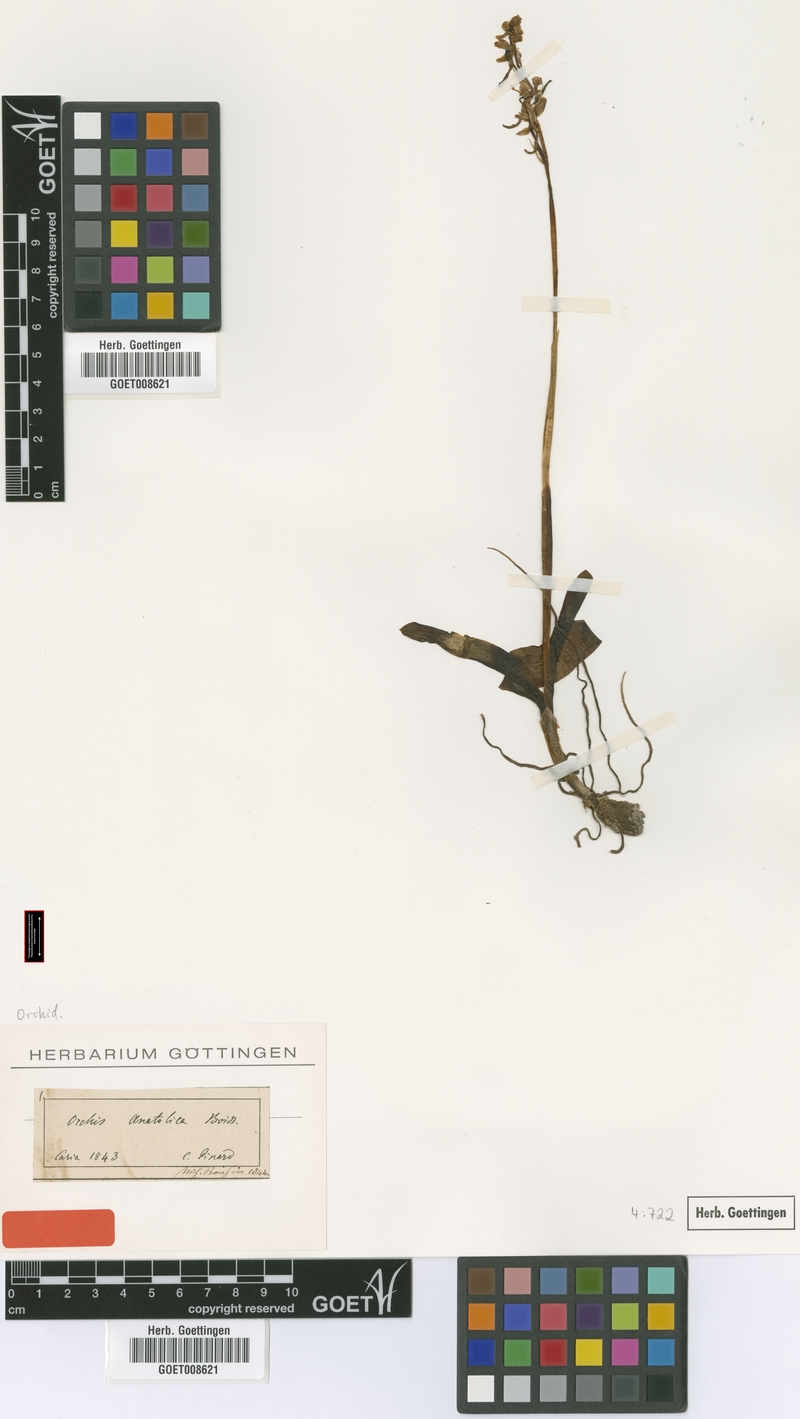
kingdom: Plantae
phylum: Tracheophyta
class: Liliopsida
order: Asparagales
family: Orchidaceae
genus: Orchis
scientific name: Orchis anatolica
